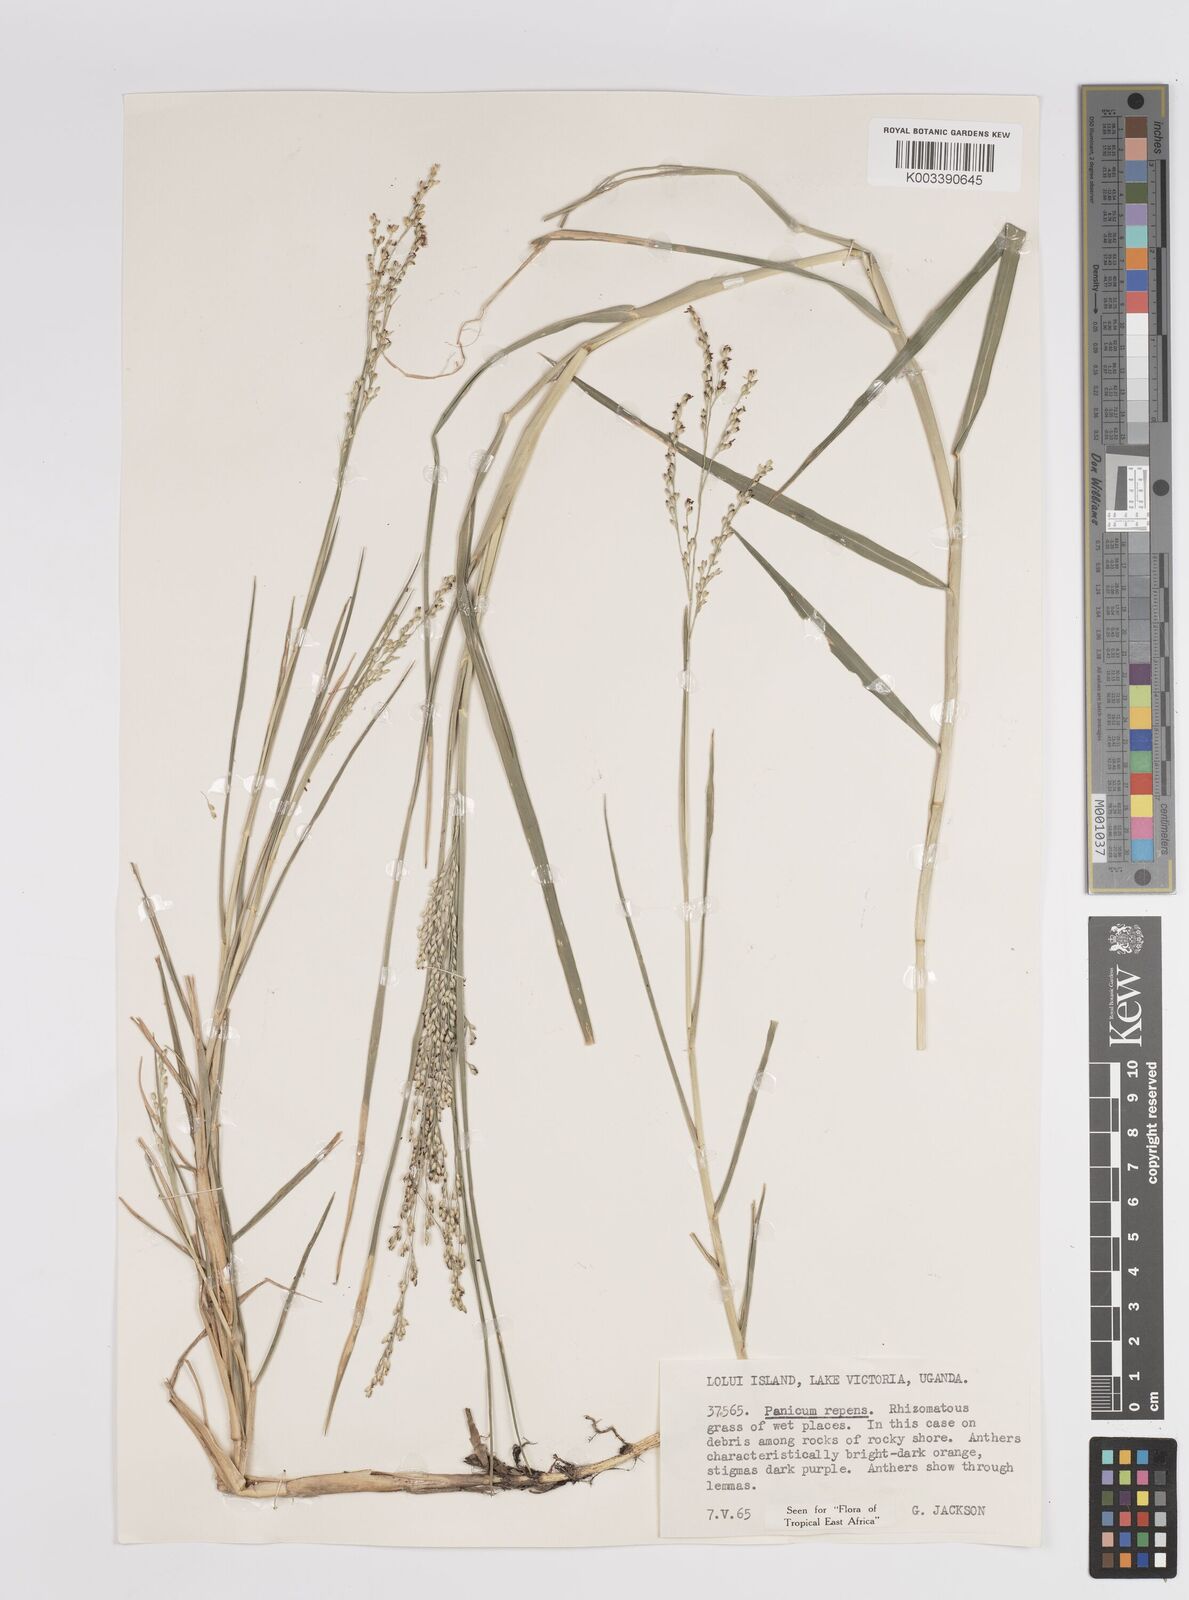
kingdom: Plantae
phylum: Tracheophyta
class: Liliopsida
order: Poales
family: Poaceae
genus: Panicum
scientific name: Panicum repens
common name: Torpedo grass
